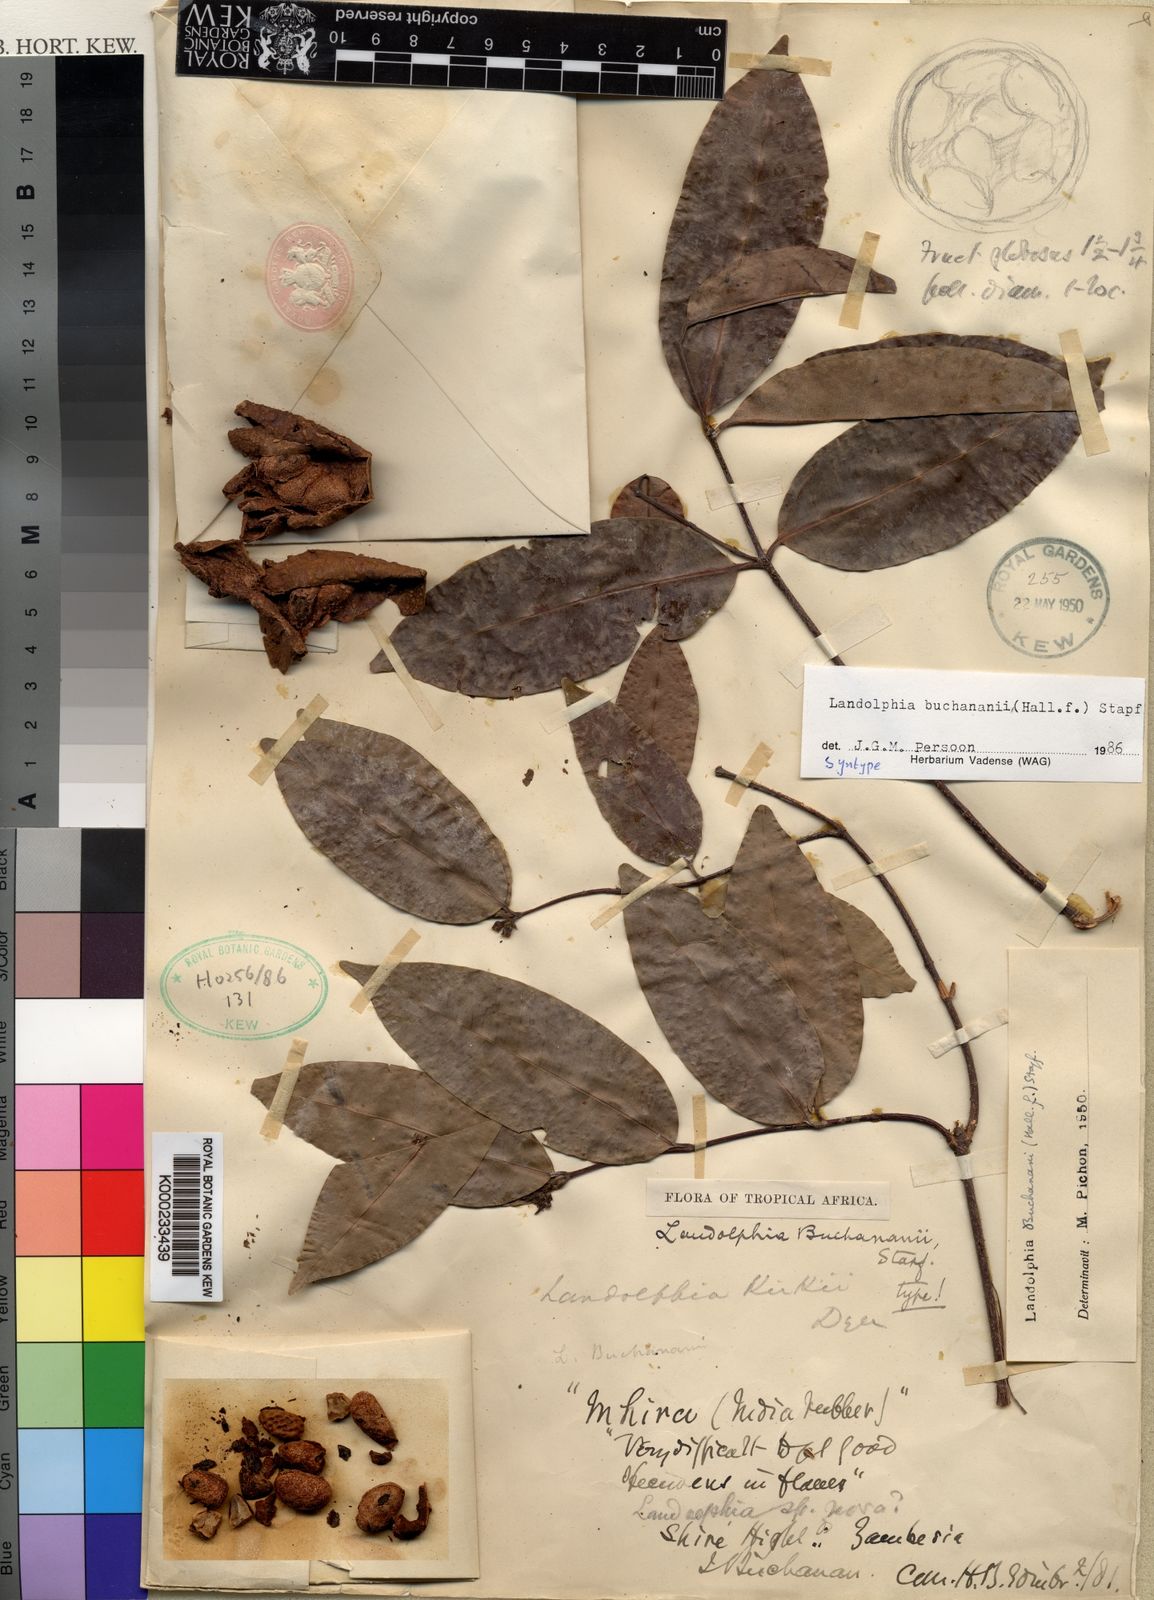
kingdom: Plantae
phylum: Tracheophyta
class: Magnoliopsida
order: Gentianales
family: Apocynaceae
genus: Landolphia
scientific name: Landolphia buchananii
